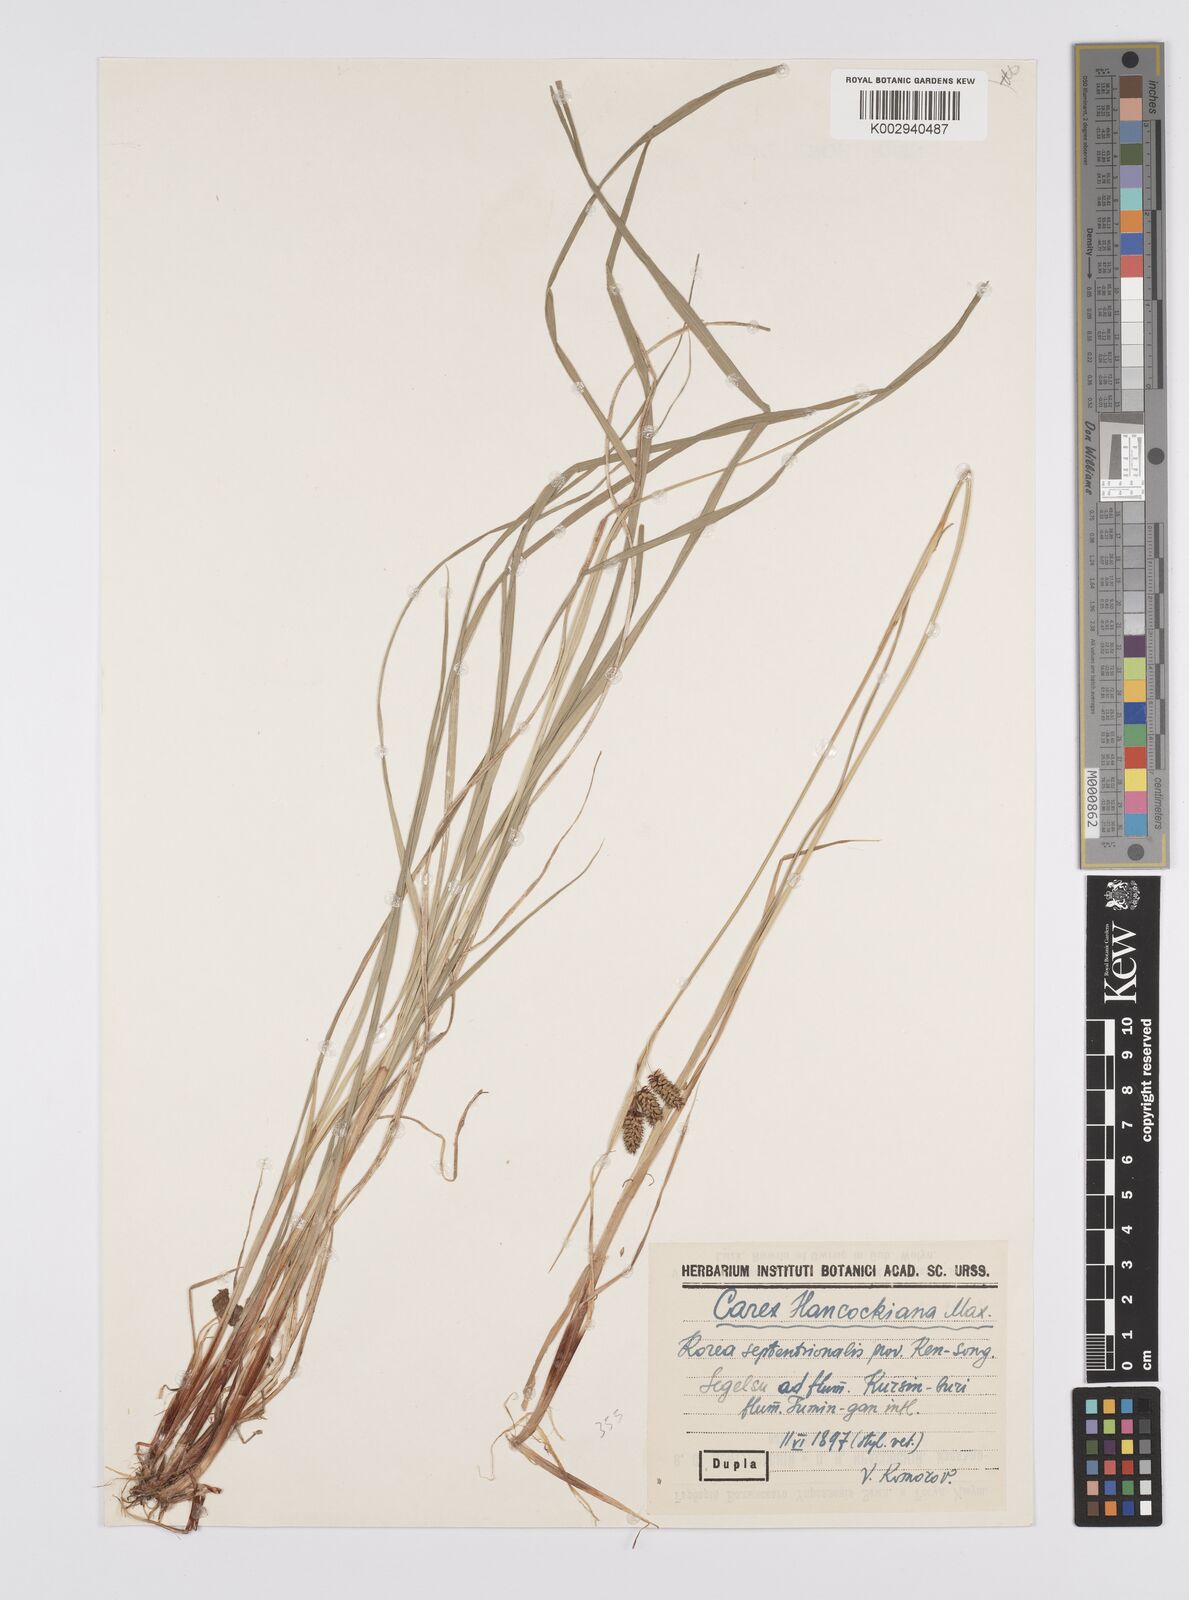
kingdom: Plantae
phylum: Tracheophyta
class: Liliopsida
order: Poales
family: Cyperaceae
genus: Carex
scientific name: Carex hancockiana
